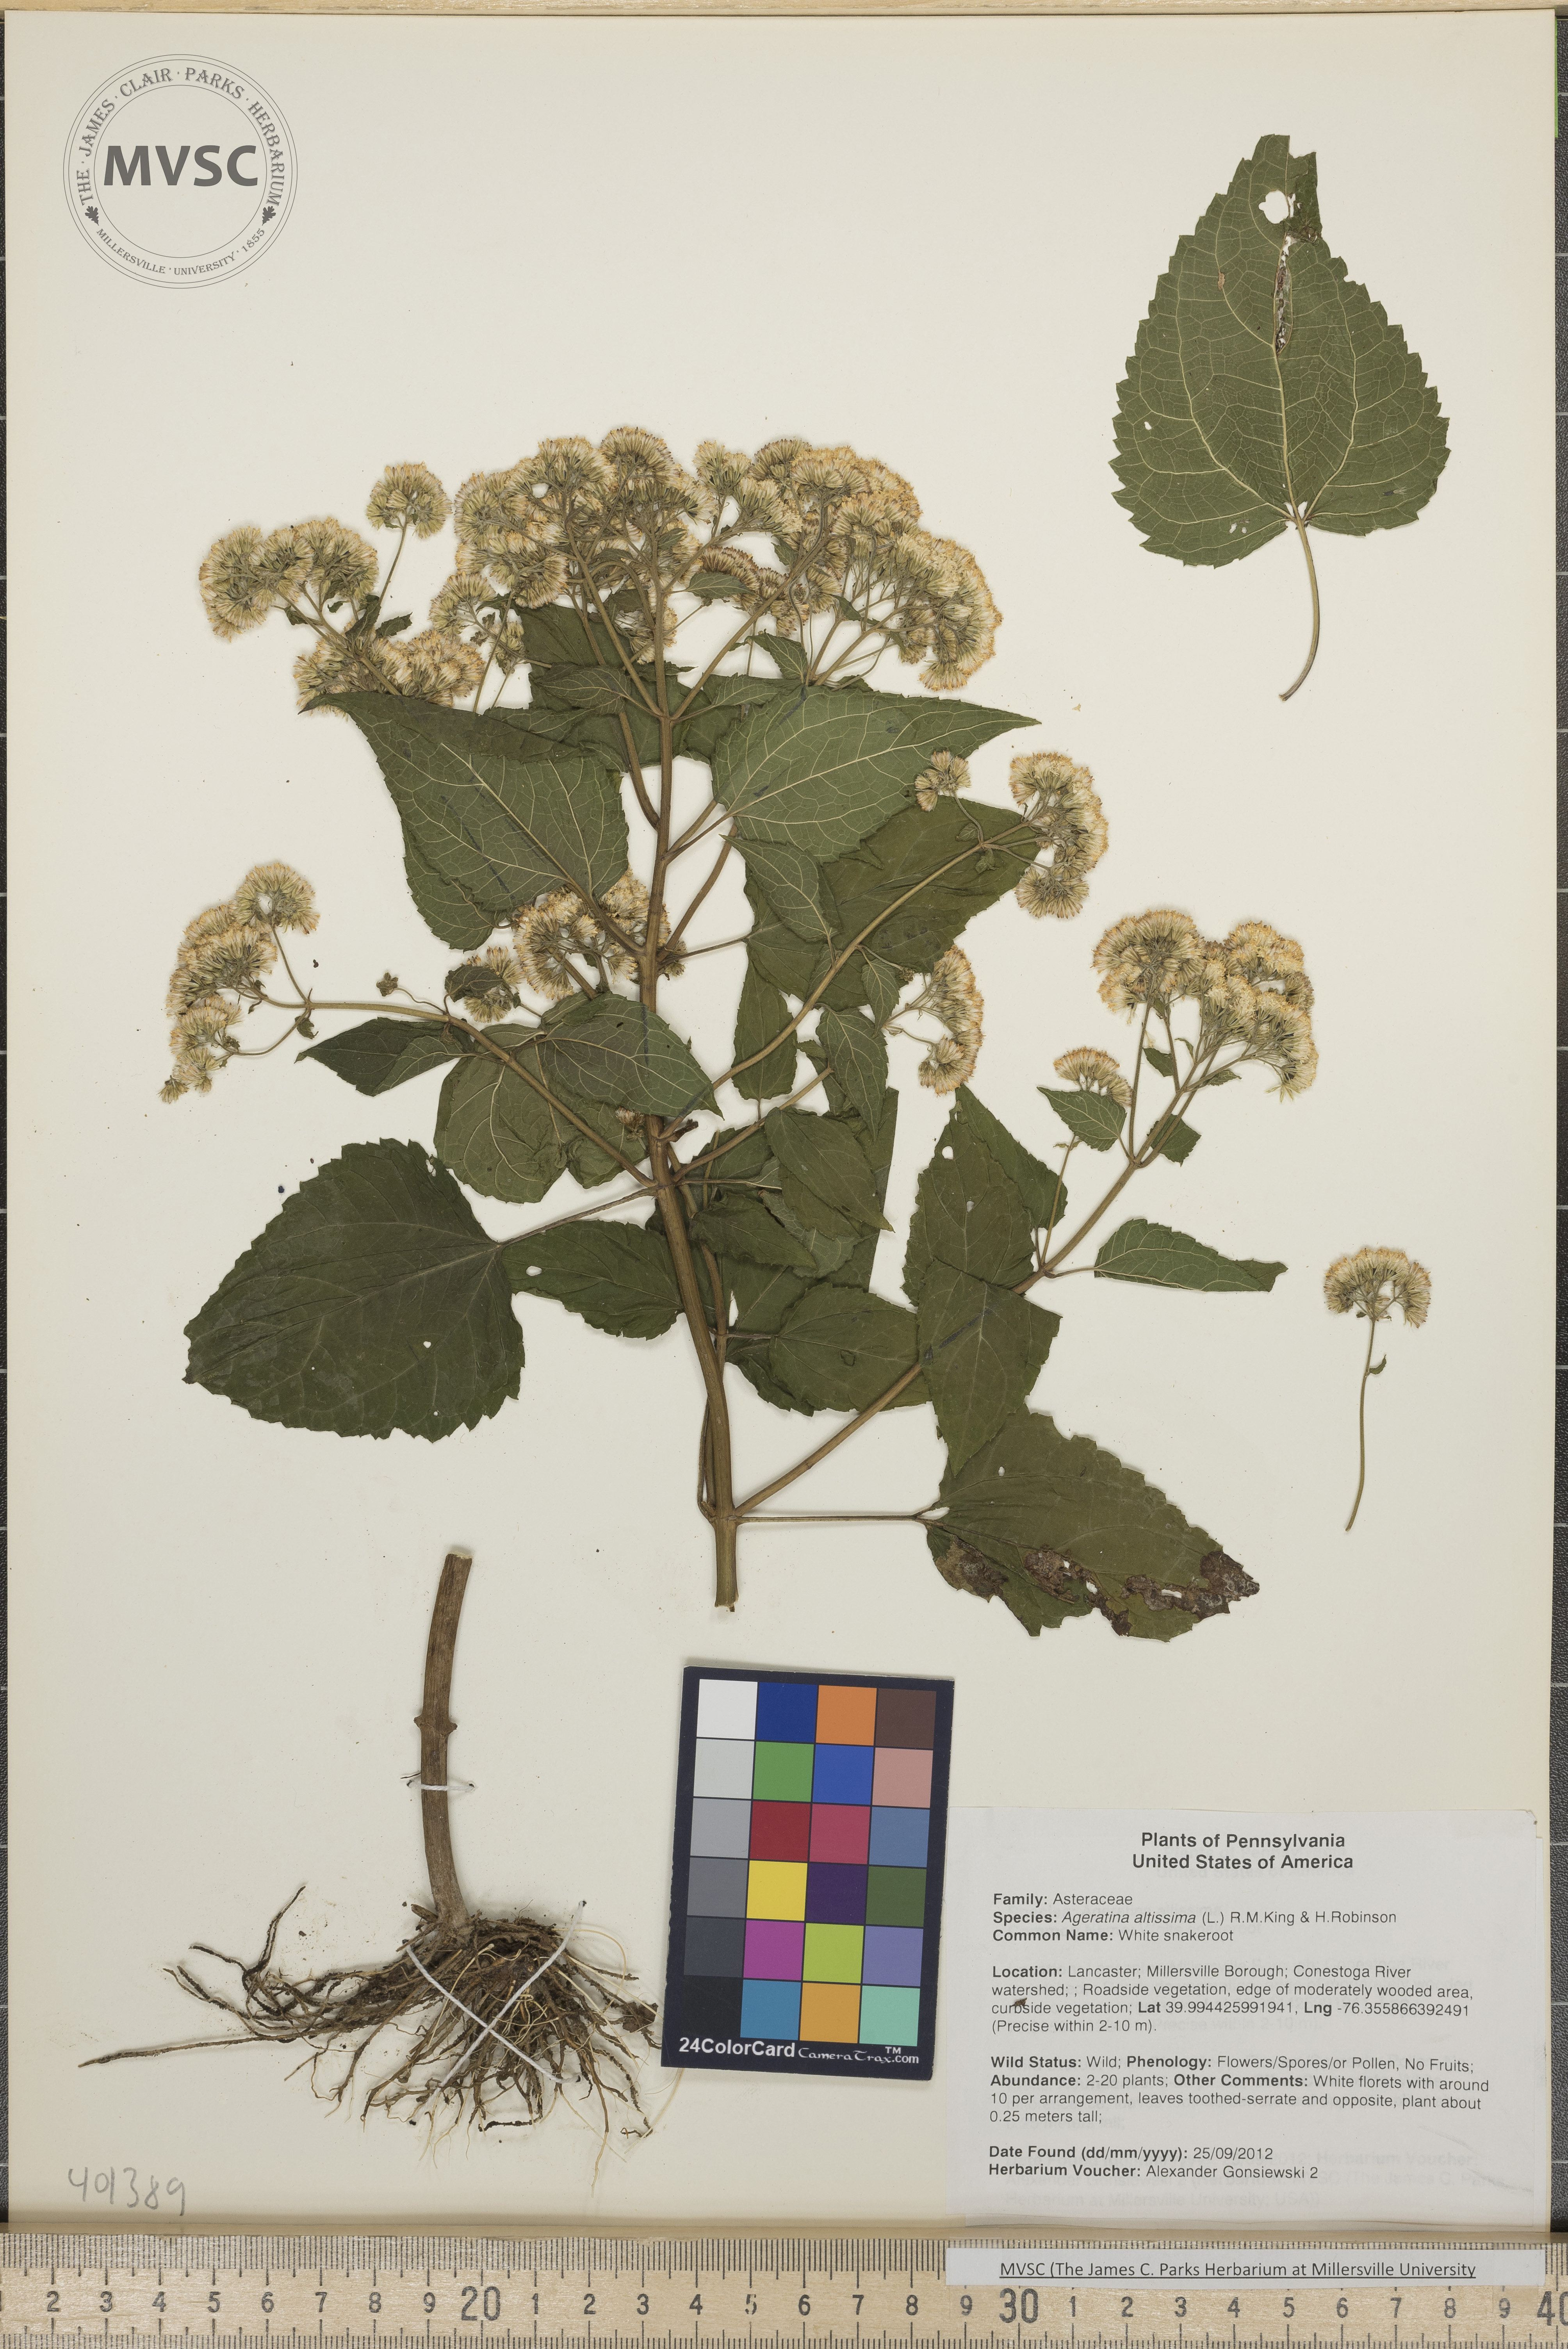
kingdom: Plantae
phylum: Tracheophyta
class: Magnoliopsida
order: Asterales
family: Asteraceae
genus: Ageratina
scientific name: Ageratina altissima
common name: White snakeroot
